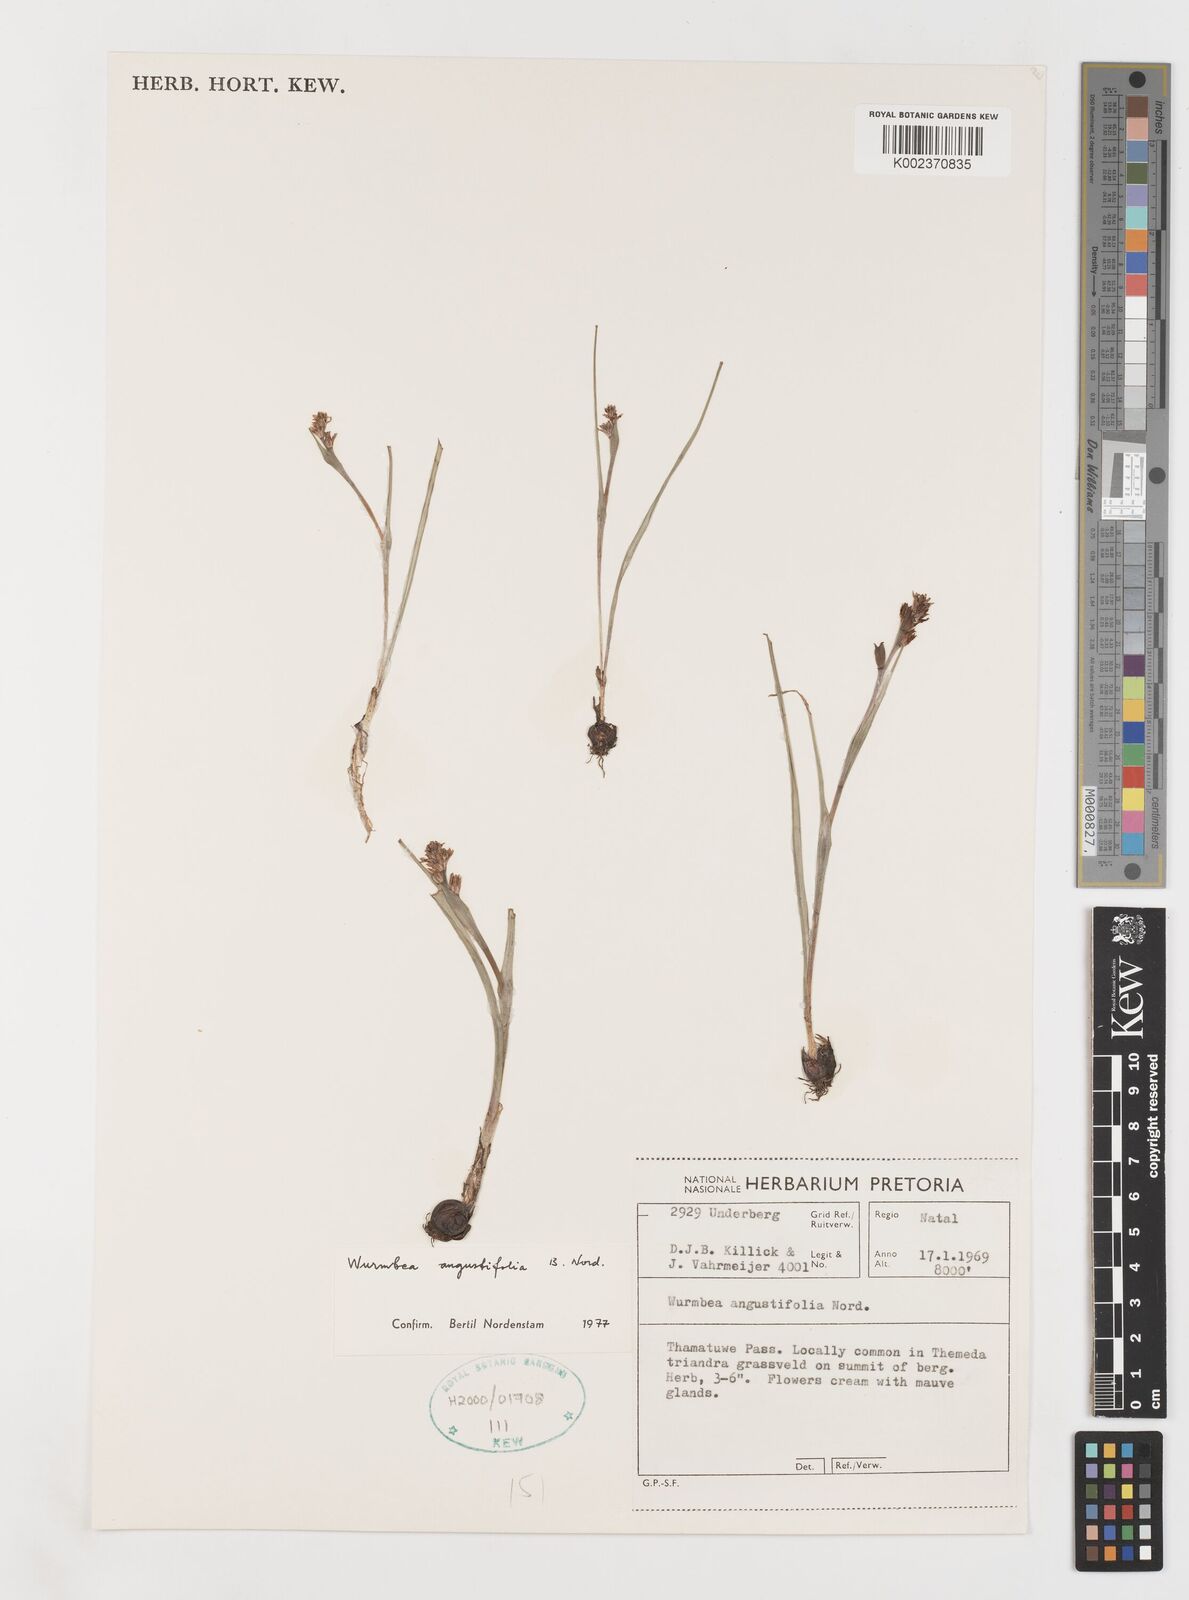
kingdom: Plantae
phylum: Tracheophyta
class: Liliopsida
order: Liliales
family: Colchicaceae
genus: Wurmbea
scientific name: Wurmbea angustifolia
